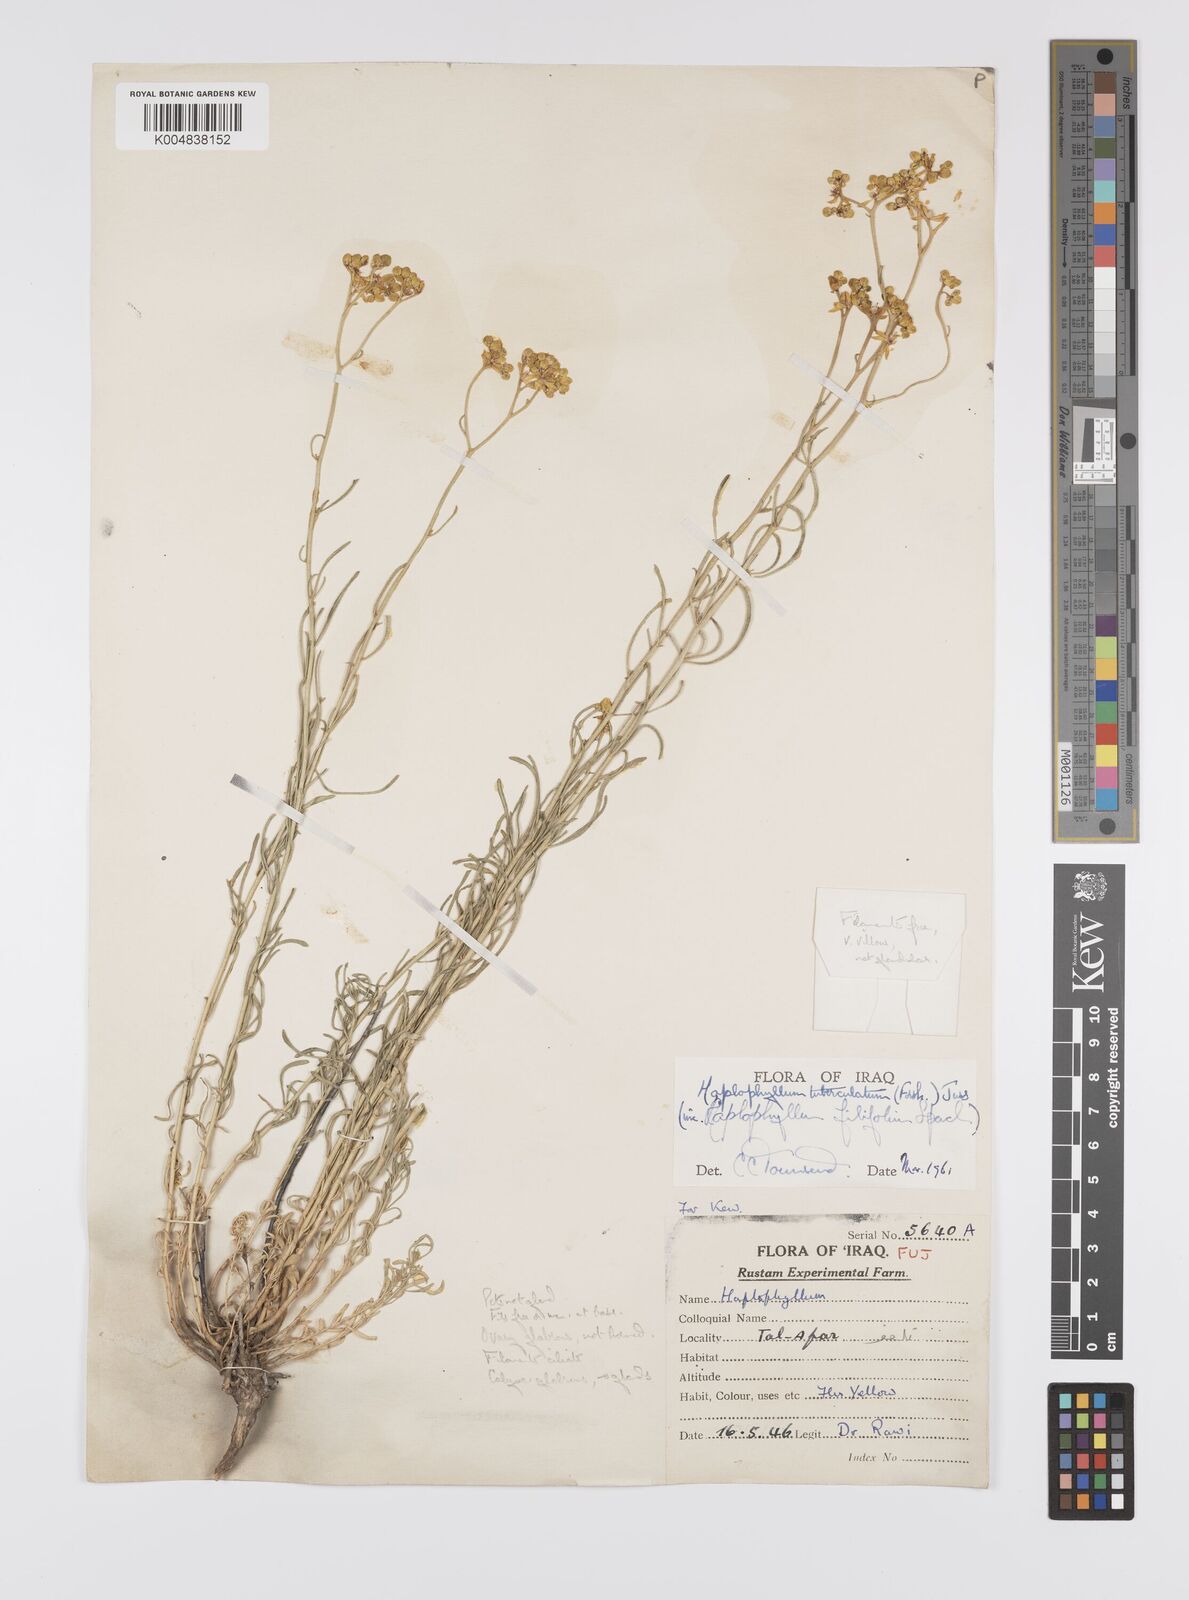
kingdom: Plantae
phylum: Tracheophyta
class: Magnoliopsida
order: Sapindales
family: Rutaceae
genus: Haplophyllum
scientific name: Haplophyllum tuberculatum
